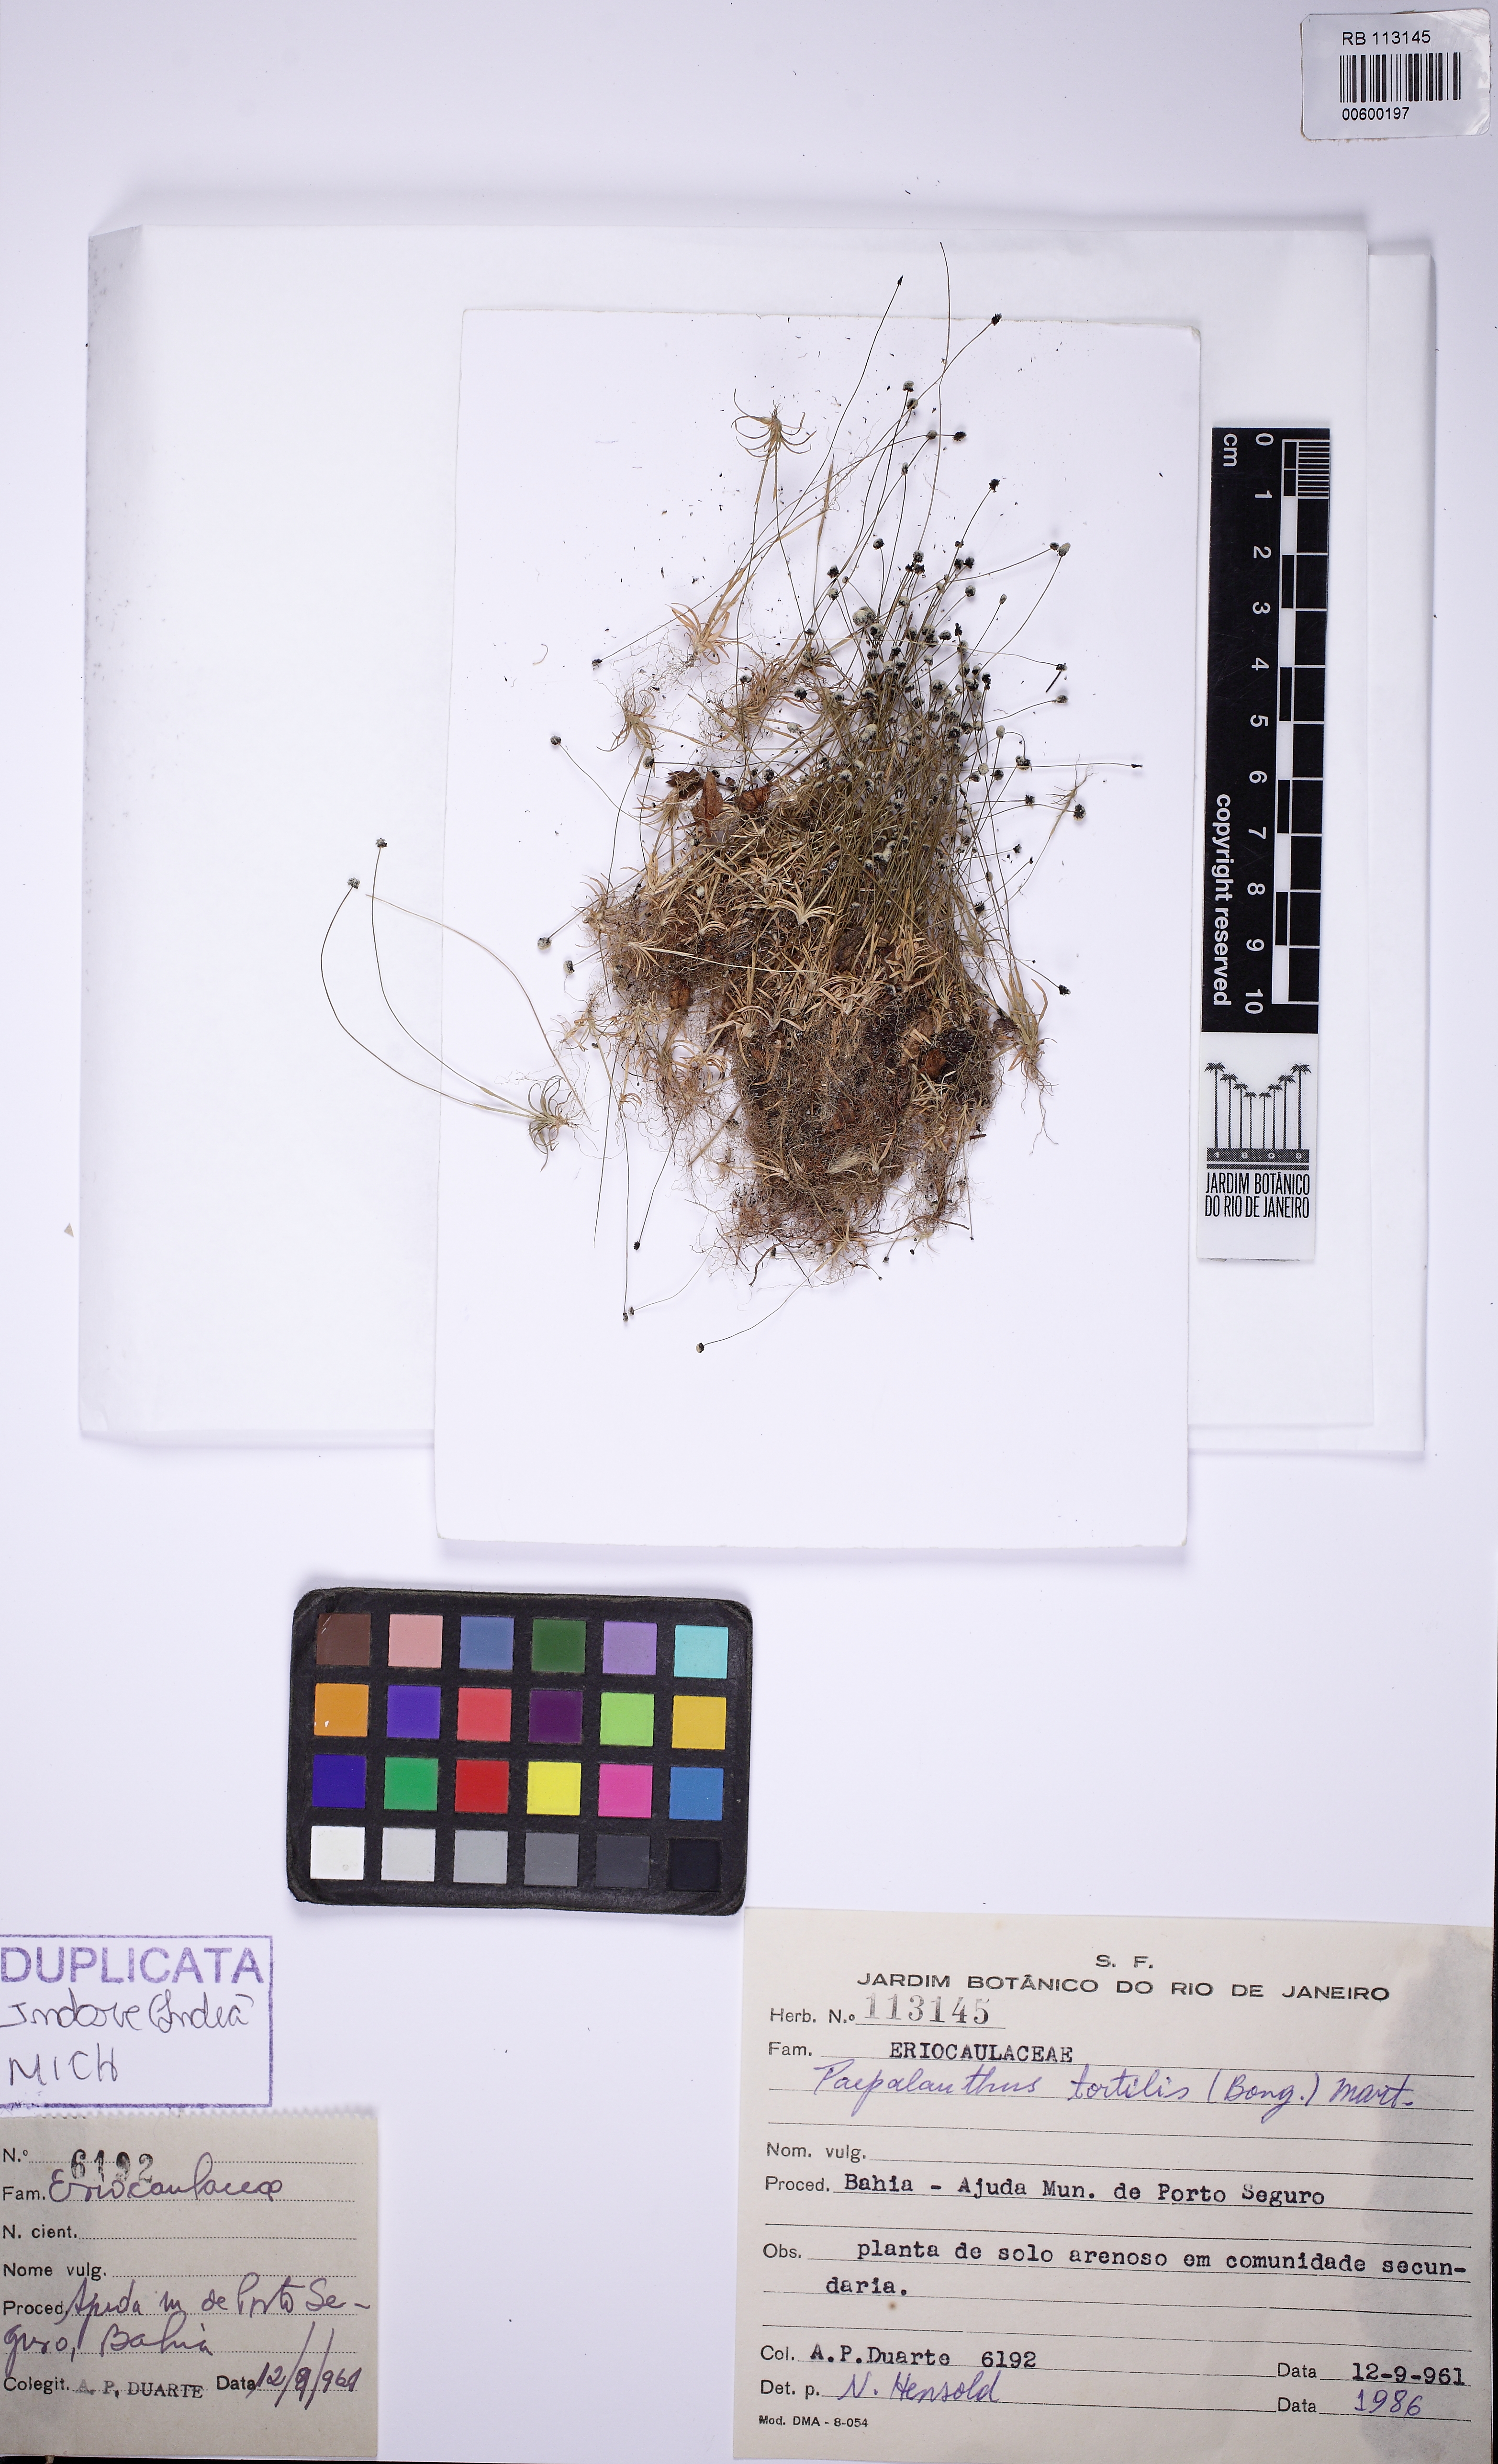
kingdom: Plantae
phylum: Tracheophyta
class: Liliopsida
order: Poales
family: Eriocaulaceae
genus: Paepalanthus
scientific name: Paepalanthus tortilis
